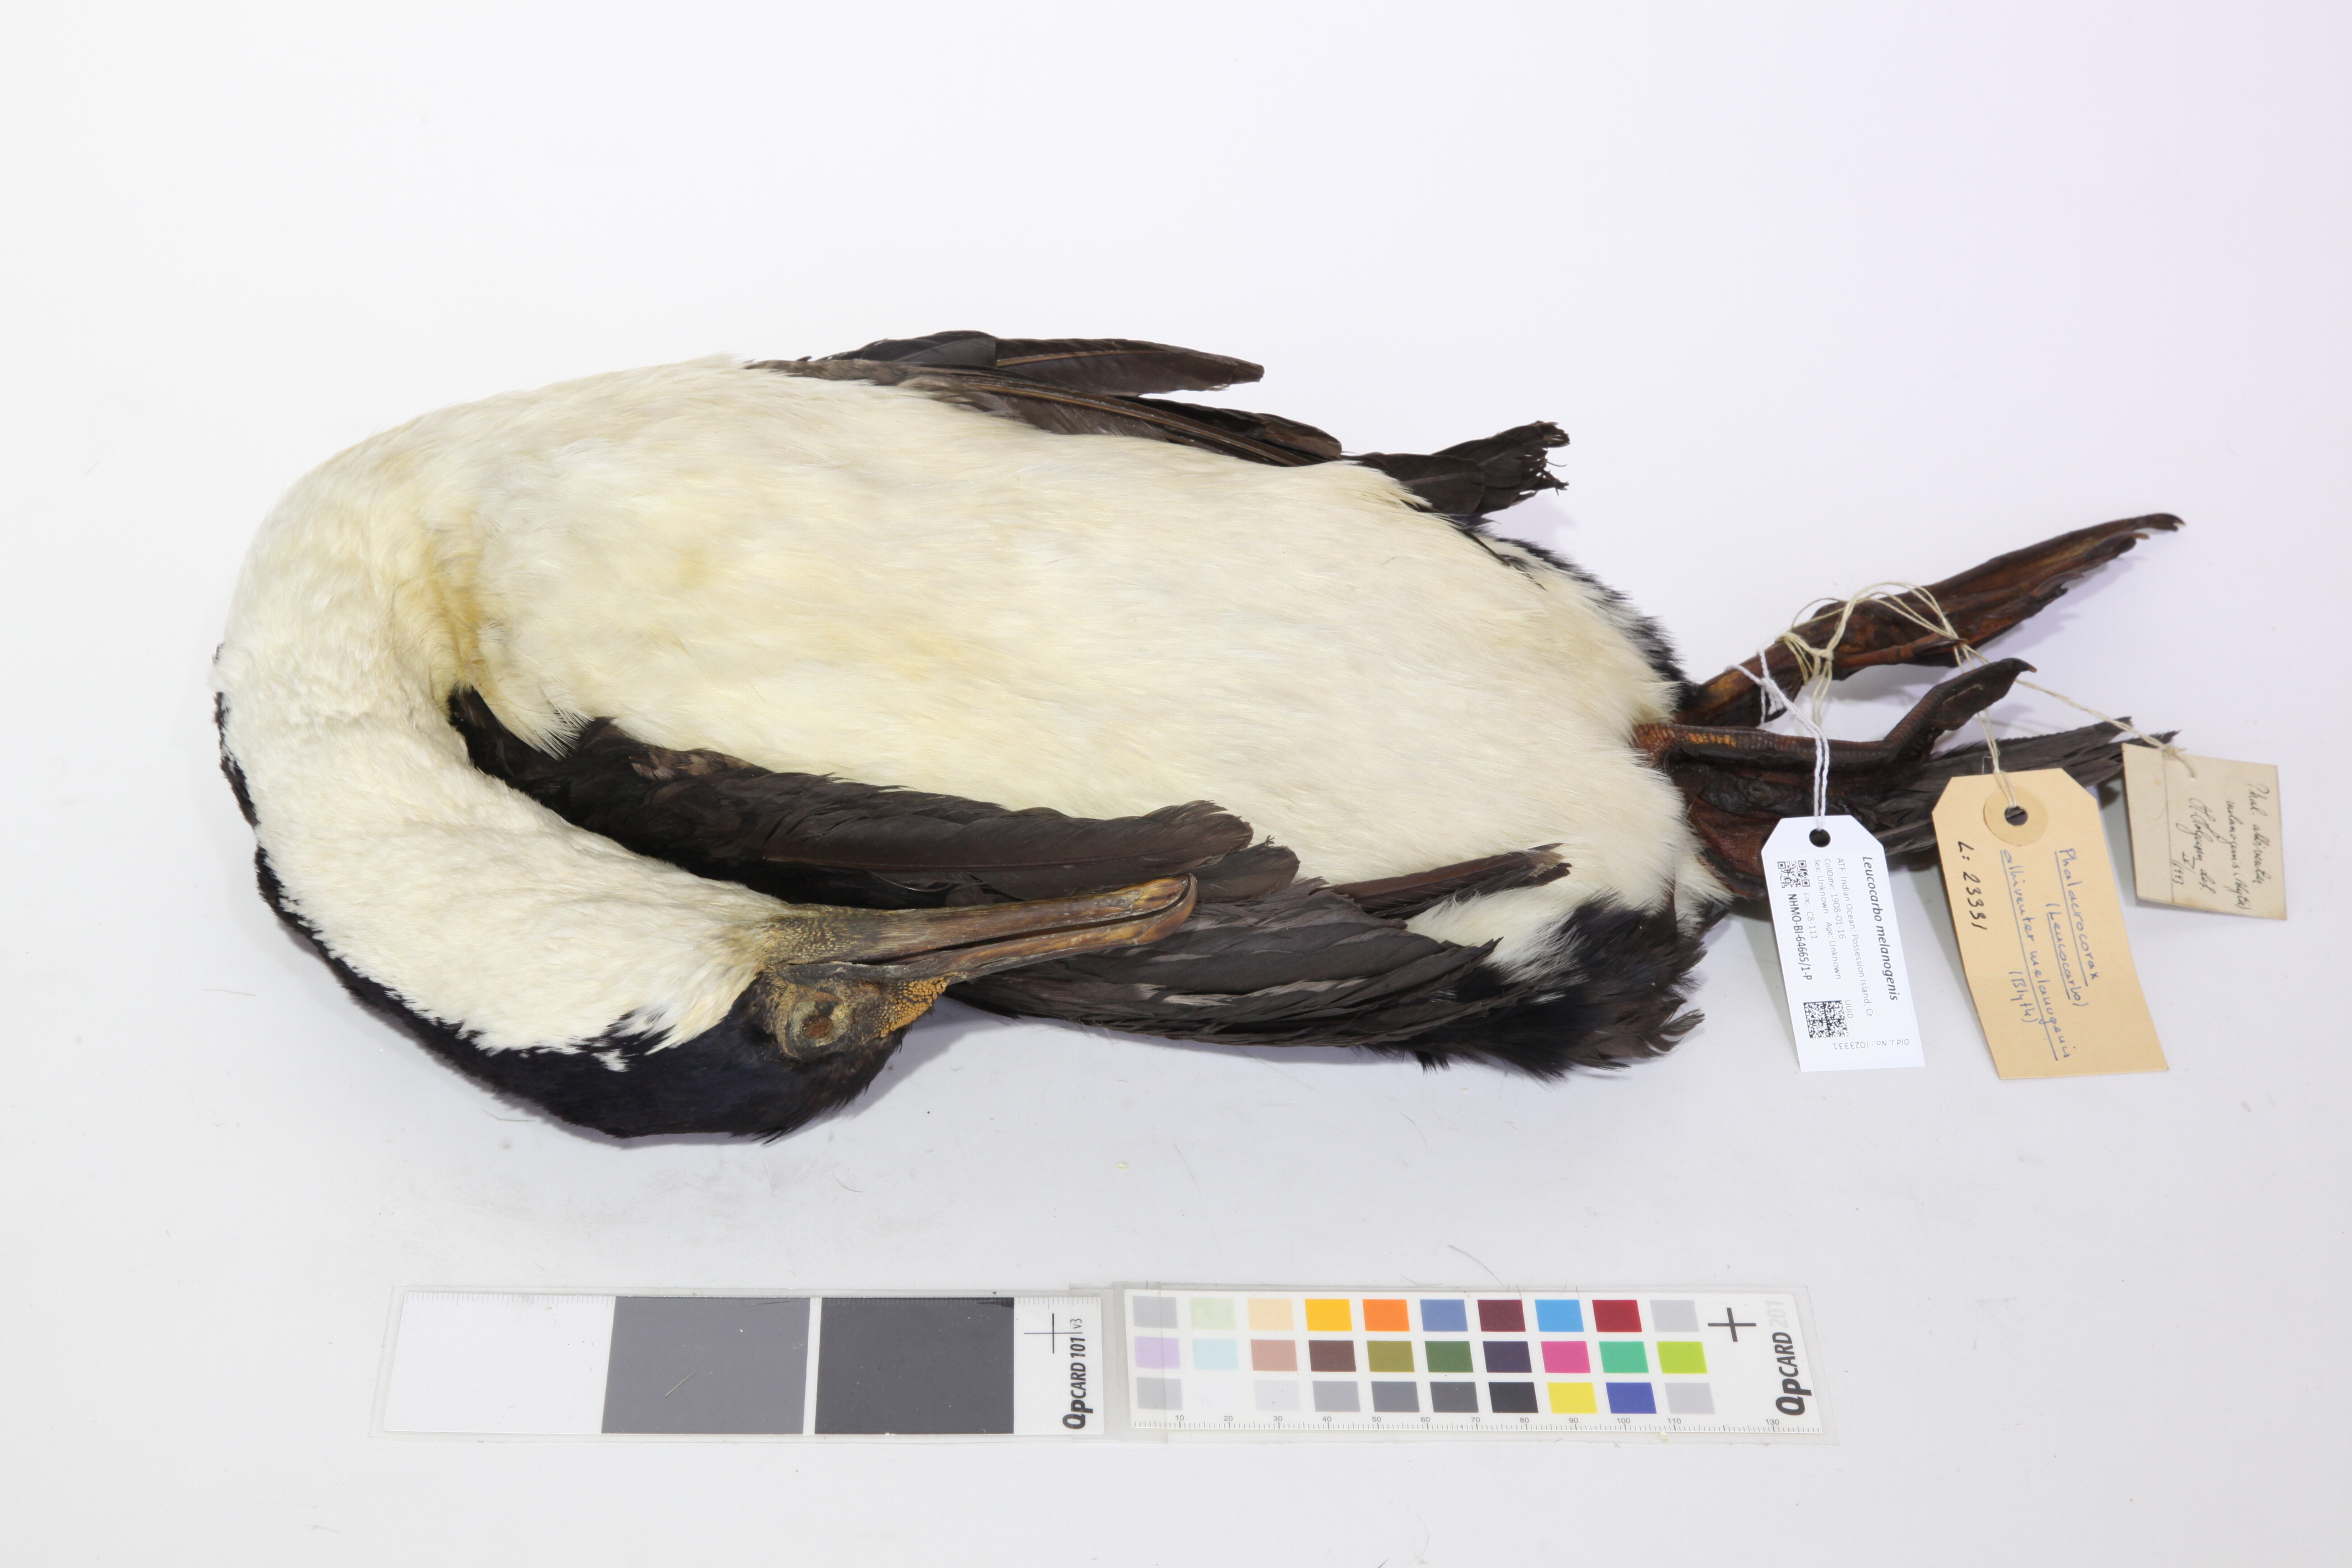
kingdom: Animalia
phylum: Chordata
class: Aves
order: Suliformes
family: Phalacrocoracidae
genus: Leucocarbo
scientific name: Leucocarbo albiventer
